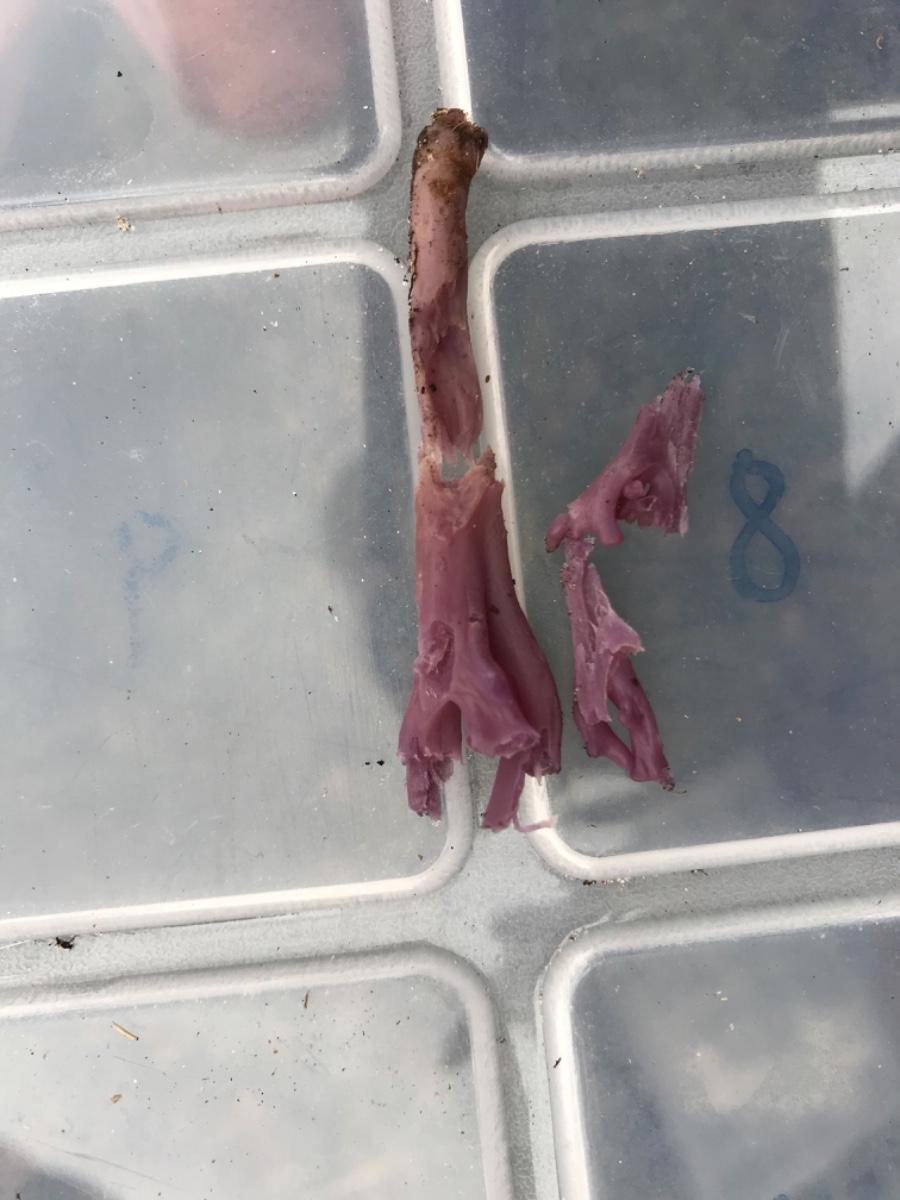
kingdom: Fungi
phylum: Basidiomycota
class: Agaricomycetes
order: Agaricales
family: Clavariaceae
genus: Clavaria
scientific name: Clavaria zollingeri
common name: purpur-køllesvamp
